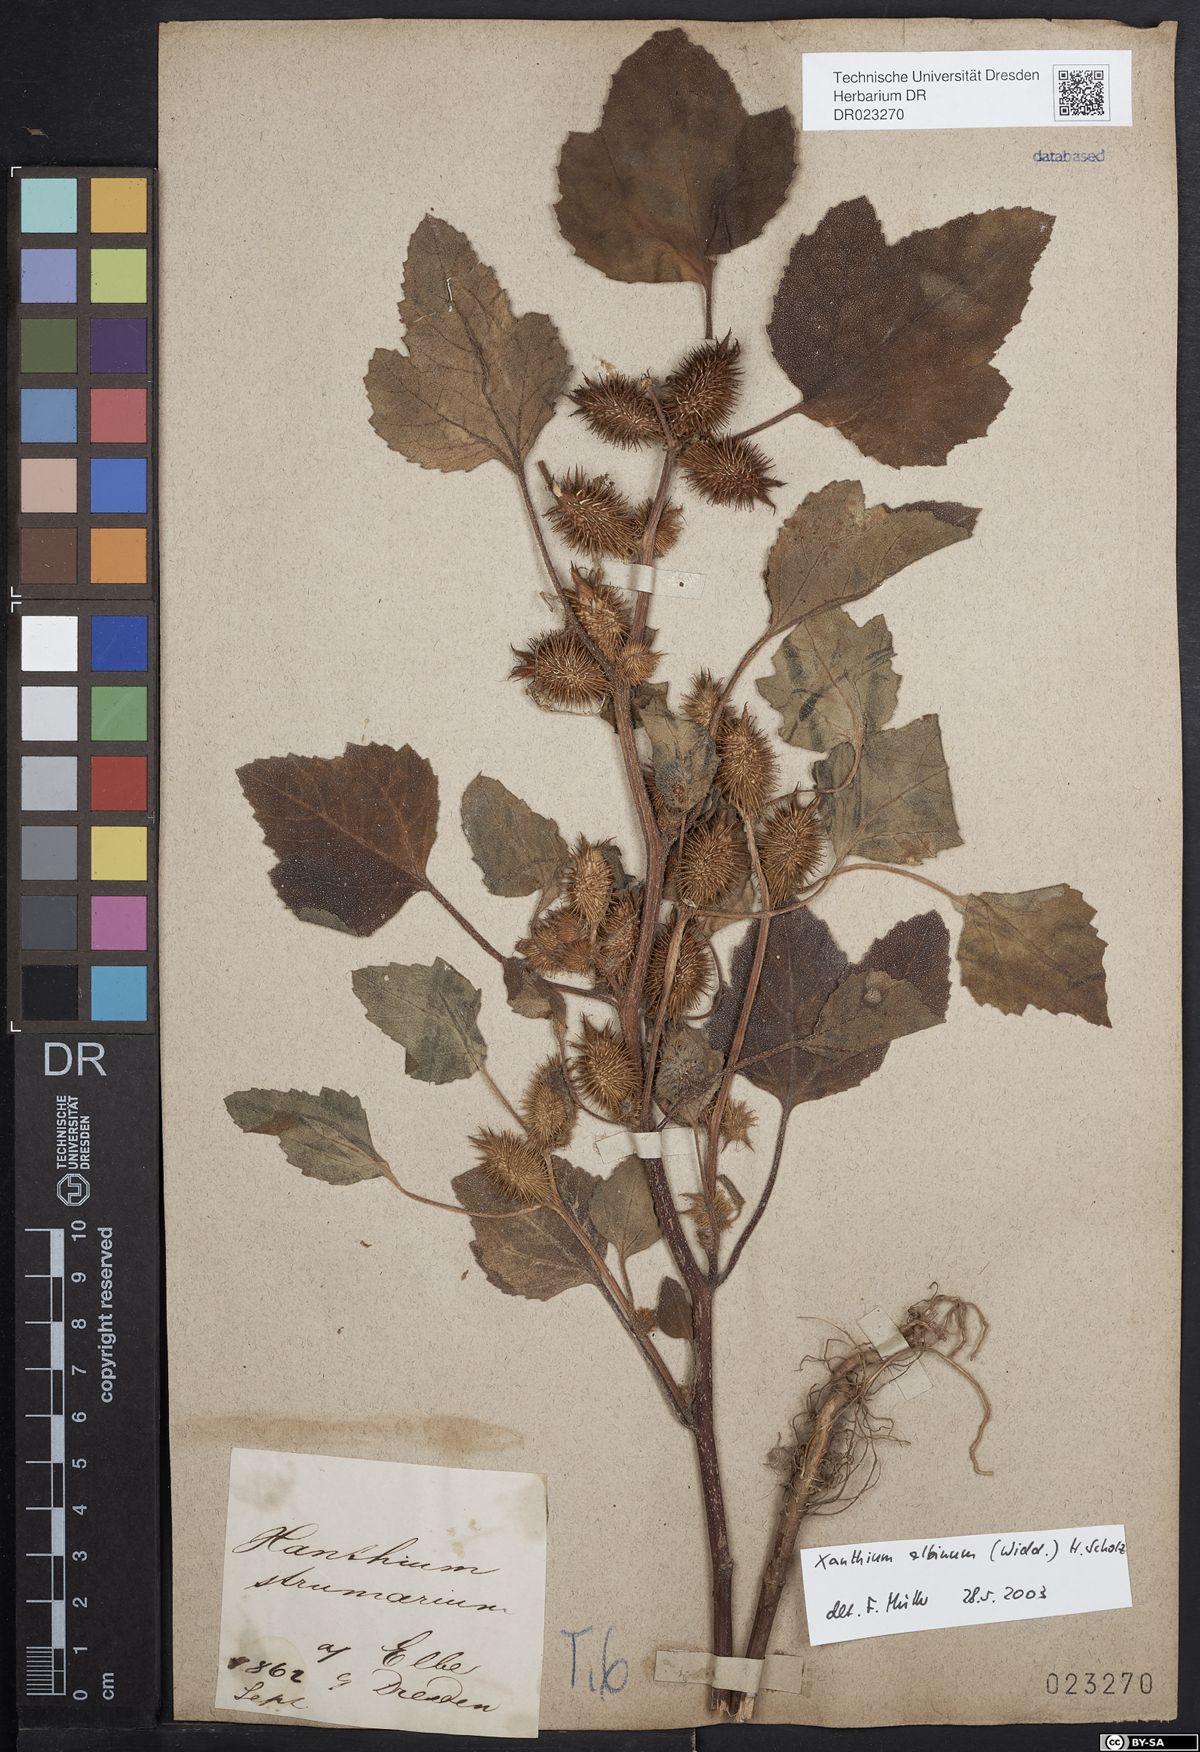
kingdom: Plantae
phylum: Tracheophyta
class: Magnoliopsida
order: Asterales
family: Asteraceae
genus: Xanthium
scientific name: Xanthium orientale
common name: Californian burr
